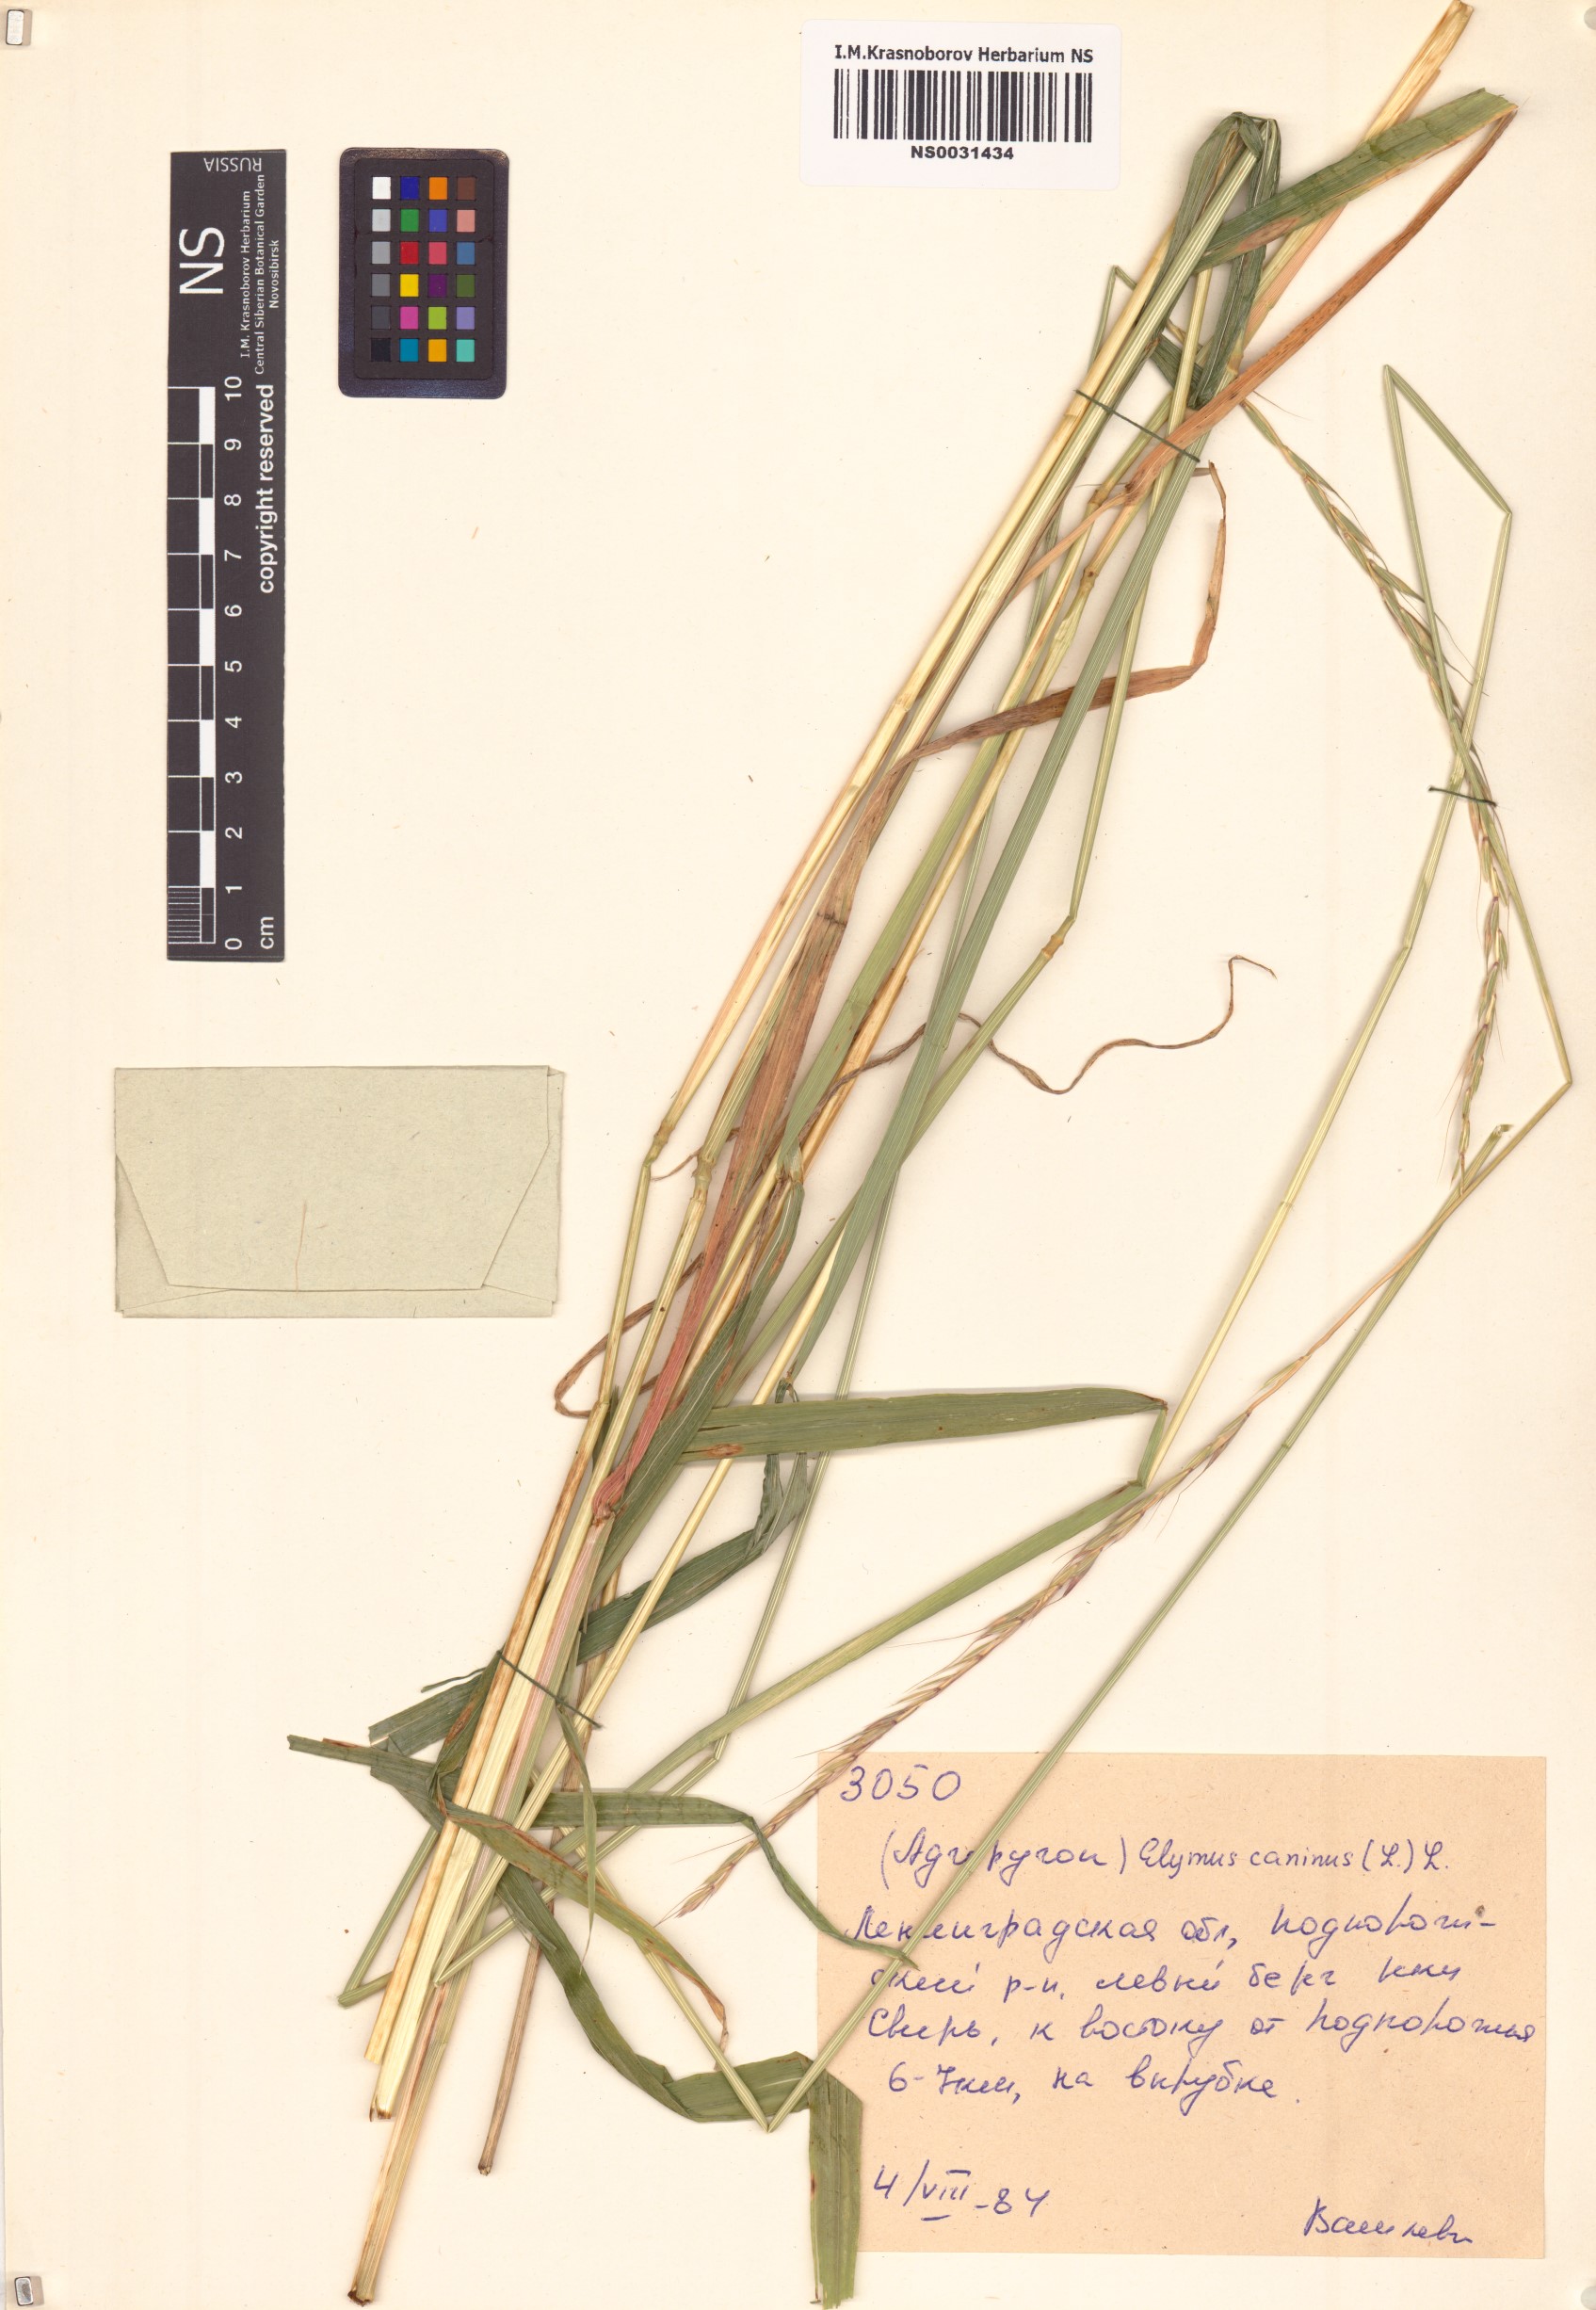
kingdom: Plantae
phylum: Tracheophyta
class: Liliopsida
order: Poales
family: Poaceae
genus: Elymus
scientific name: Elymus caninus
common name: Bearded couch
